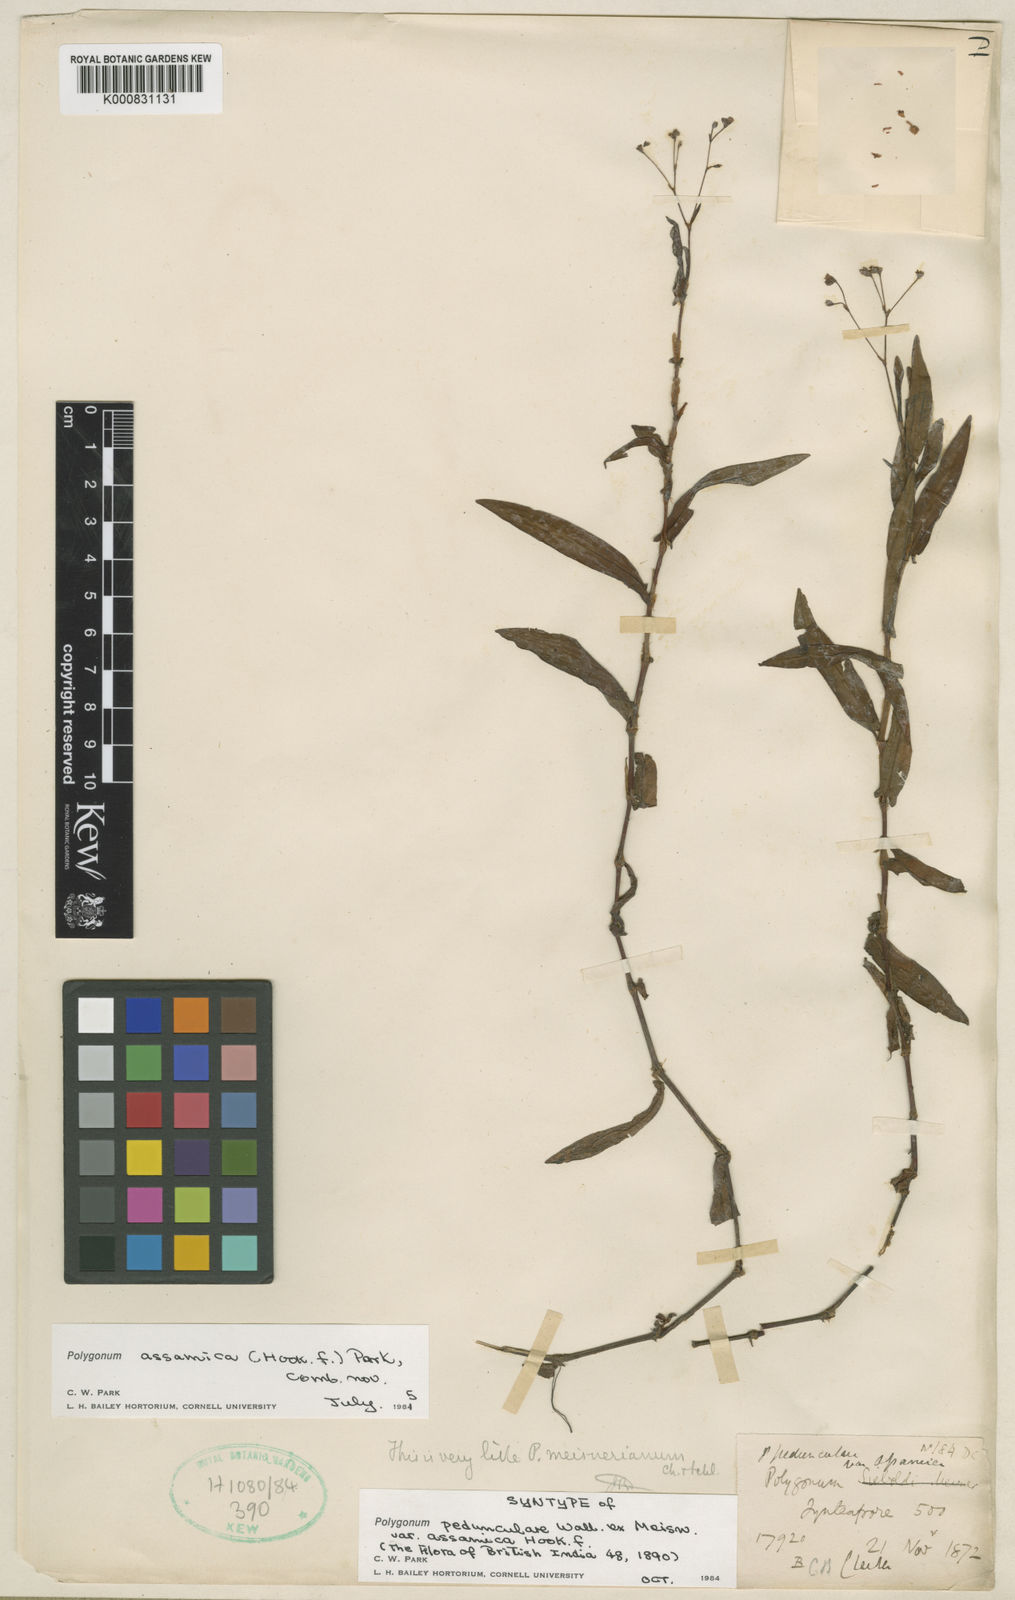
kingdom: Plantae
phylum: Tracheophyta
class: Magnoliopsida
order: Caryophyllales
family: Polygonaceae
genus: Persicaria
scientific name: Persicaria
